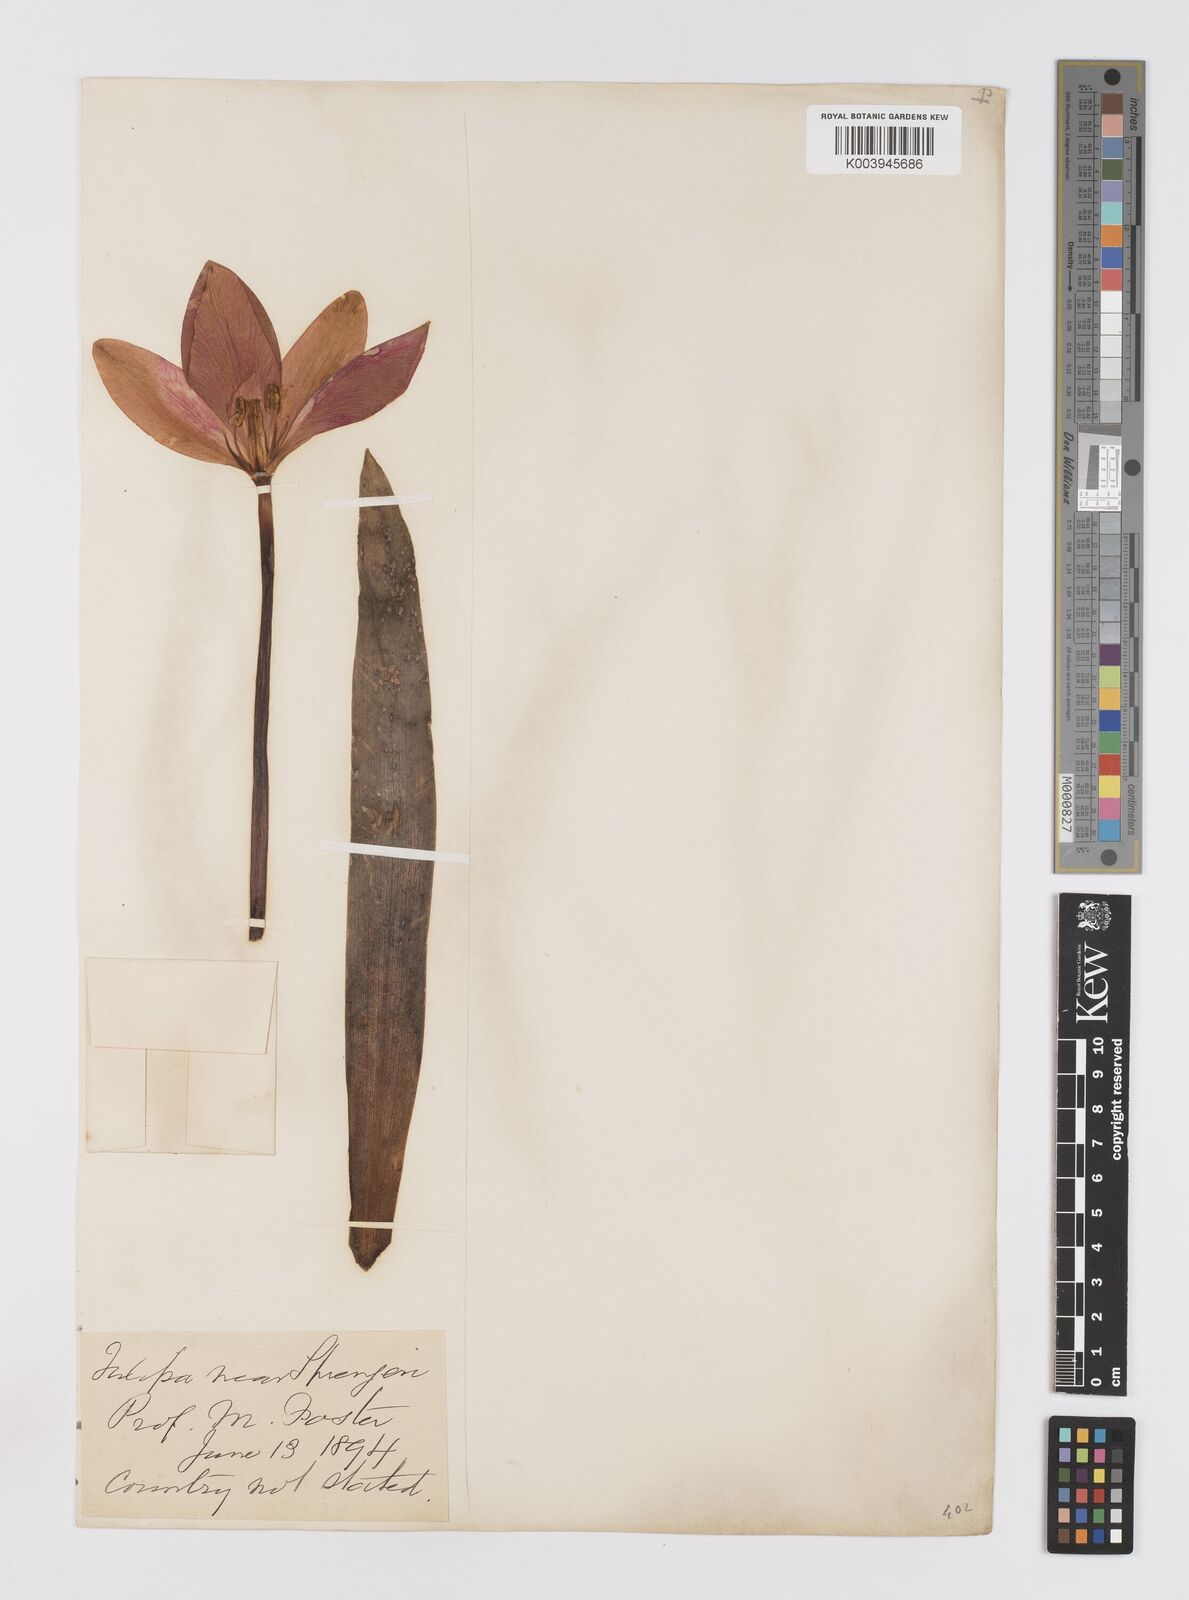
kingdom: Plantae
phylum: Tracheophyta
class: Liliopsida
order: Liliales
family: Liliaceae
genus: Tulipa
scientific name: Tulipa sprengeri
